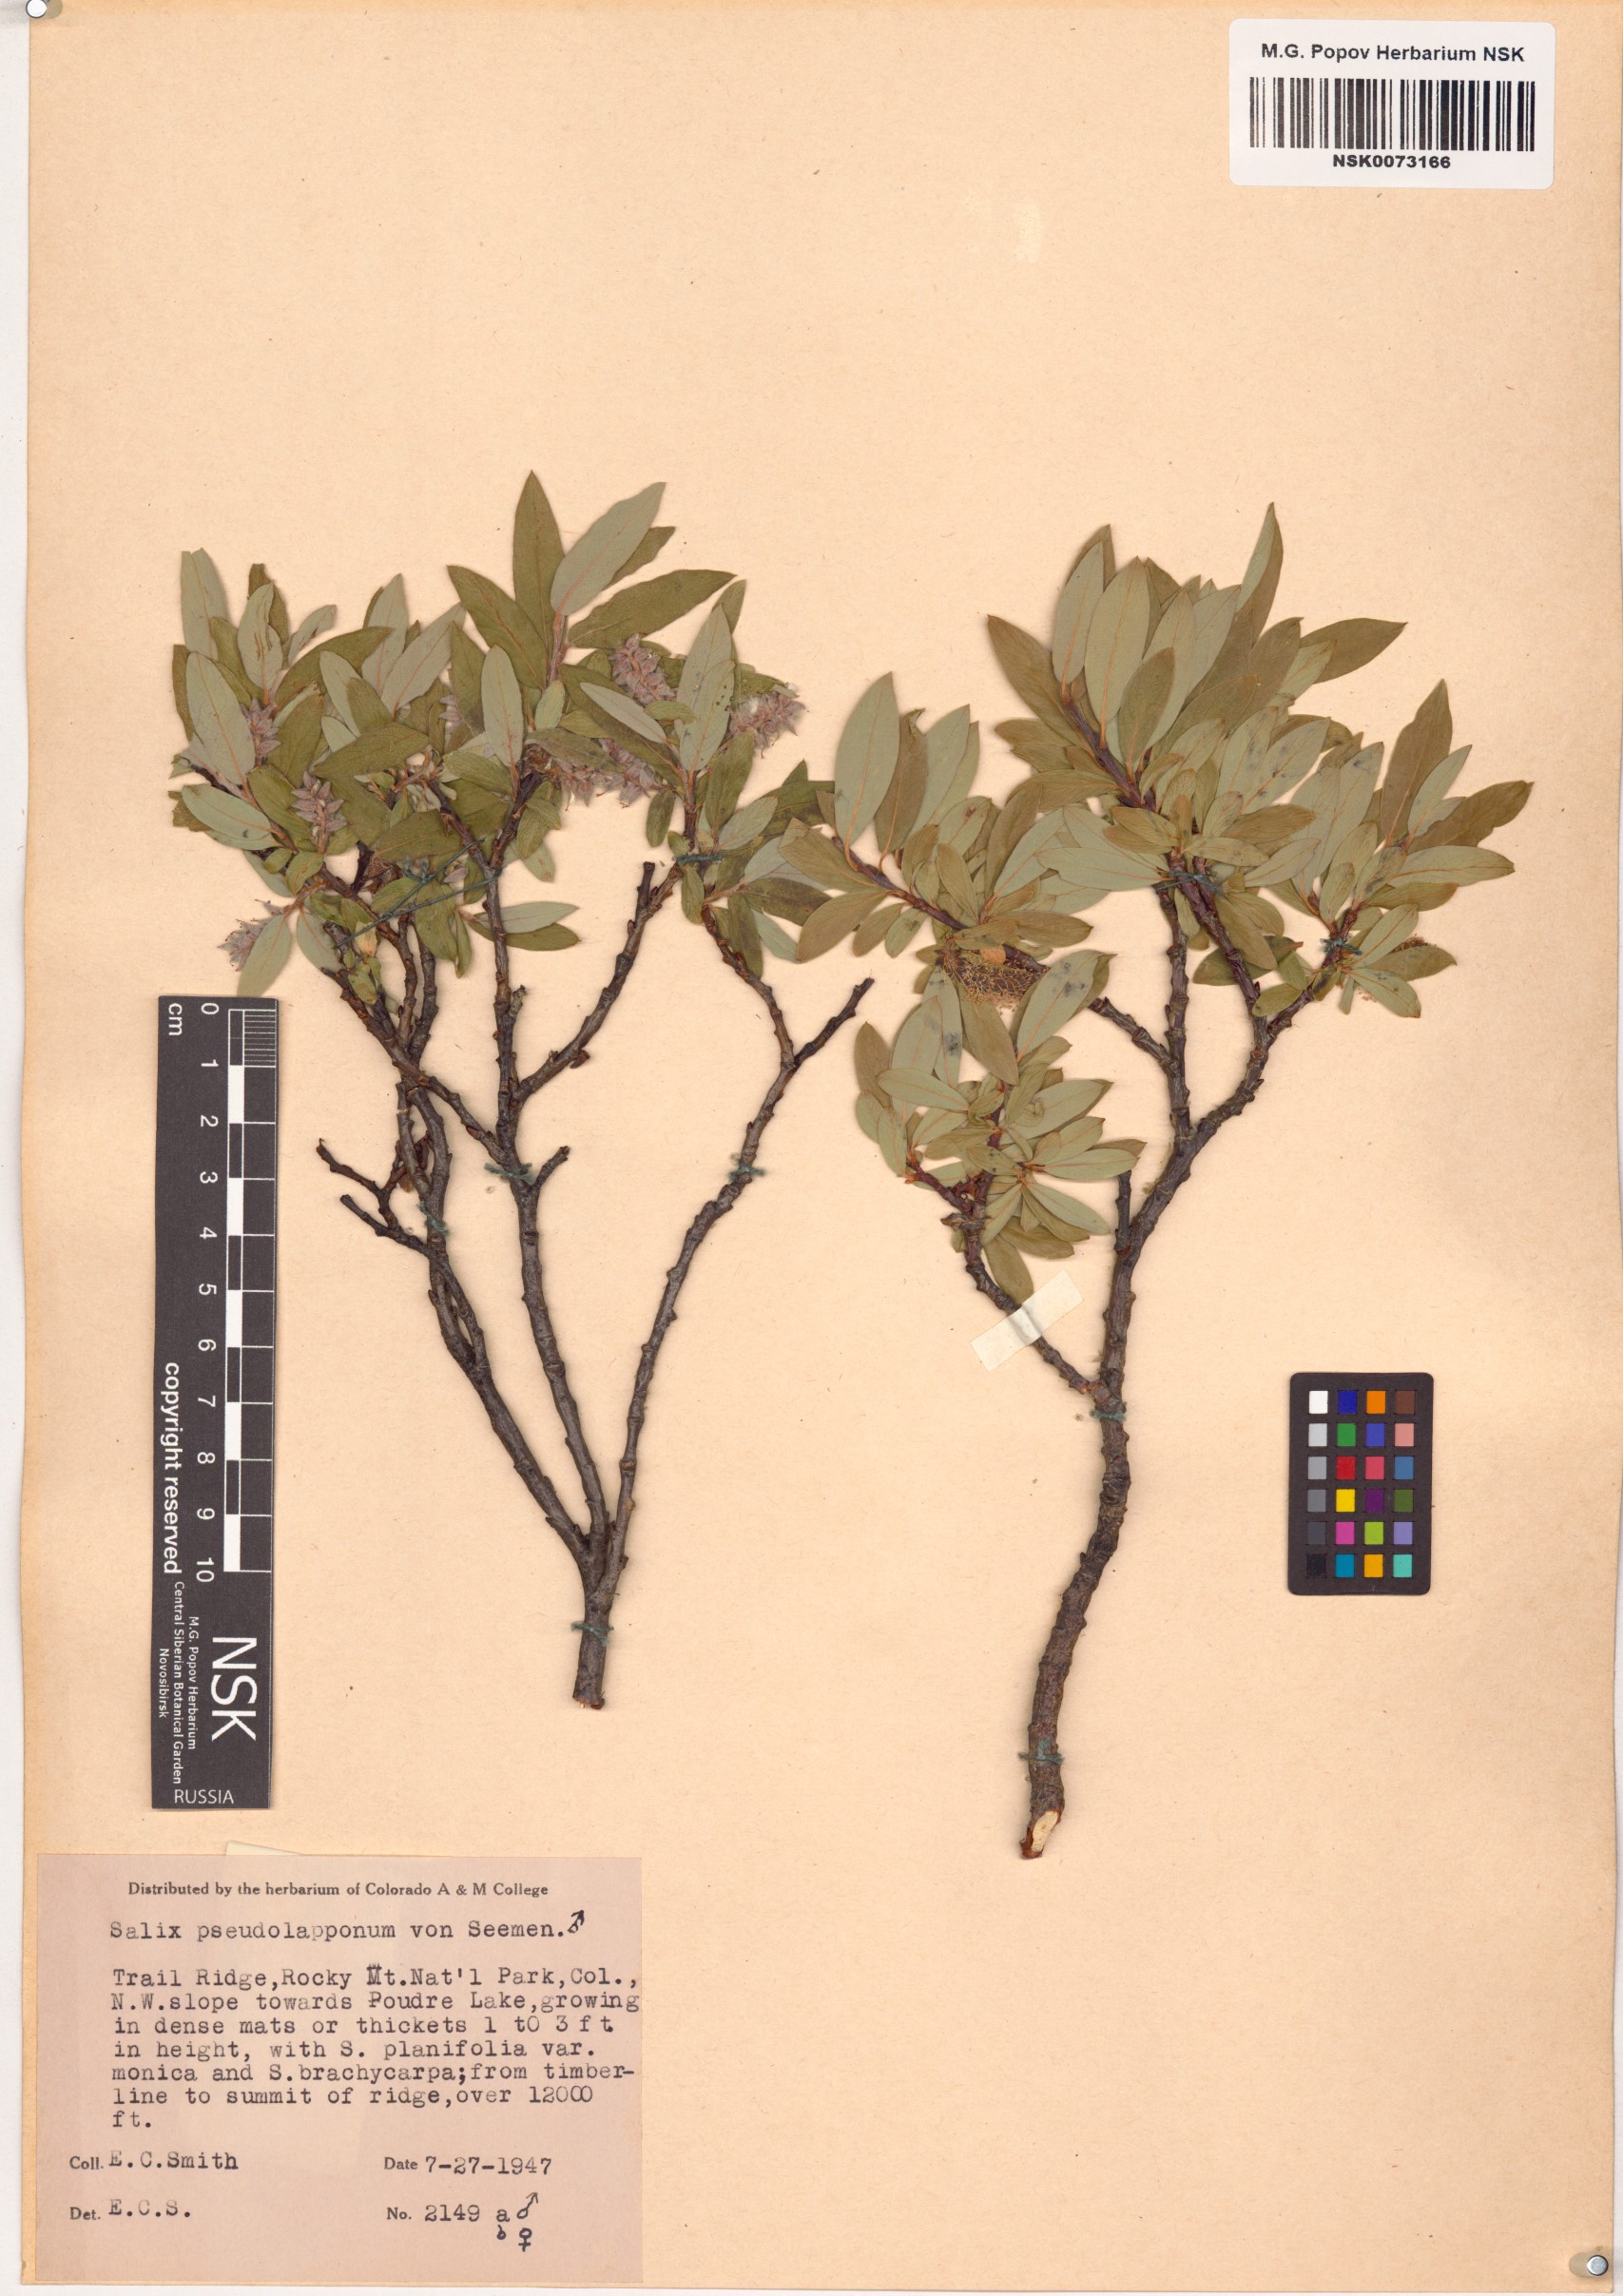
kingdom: Plantae
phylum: Tracheophyta
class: Magnoliopsida
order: Malpighiales
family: Salicaceae
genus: Salix
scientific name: Salix
